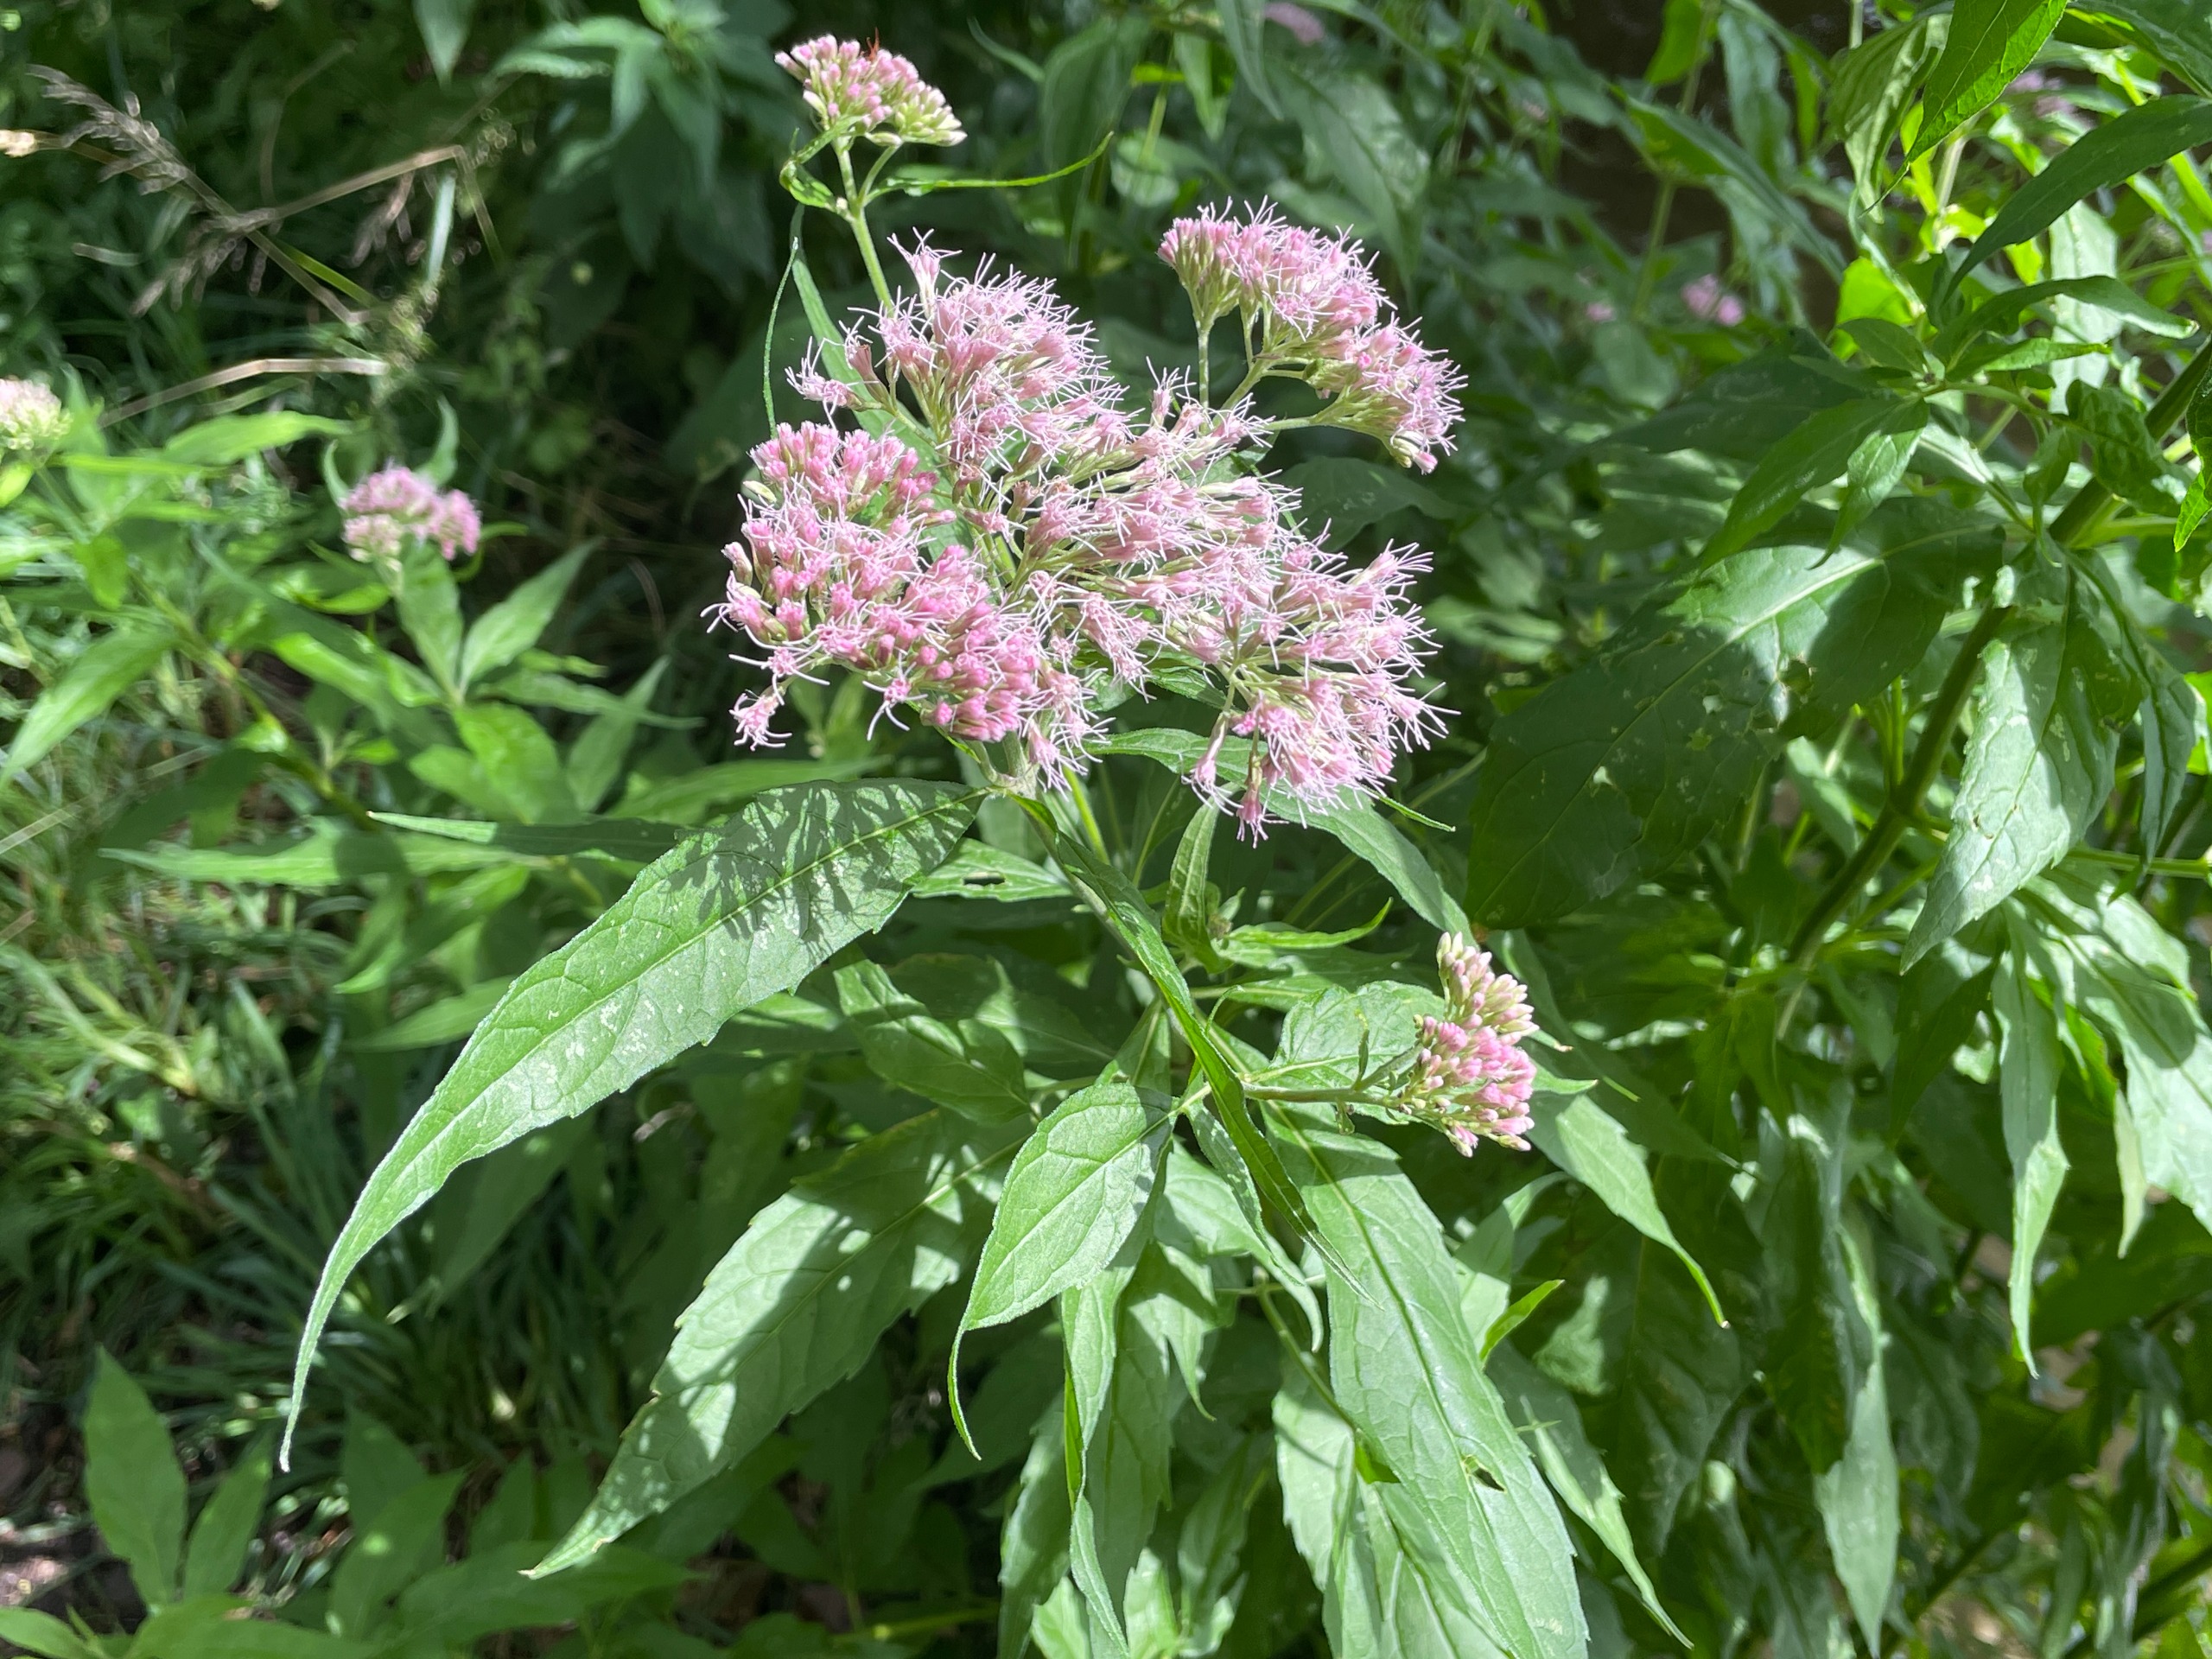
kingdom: Plantae
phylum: Tracheophyta
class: Magnoliopsida
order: Asterales
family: Asteraceae
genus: Eupatorium
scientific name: Eupatorium cannabinum
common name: Hjortetrøst
